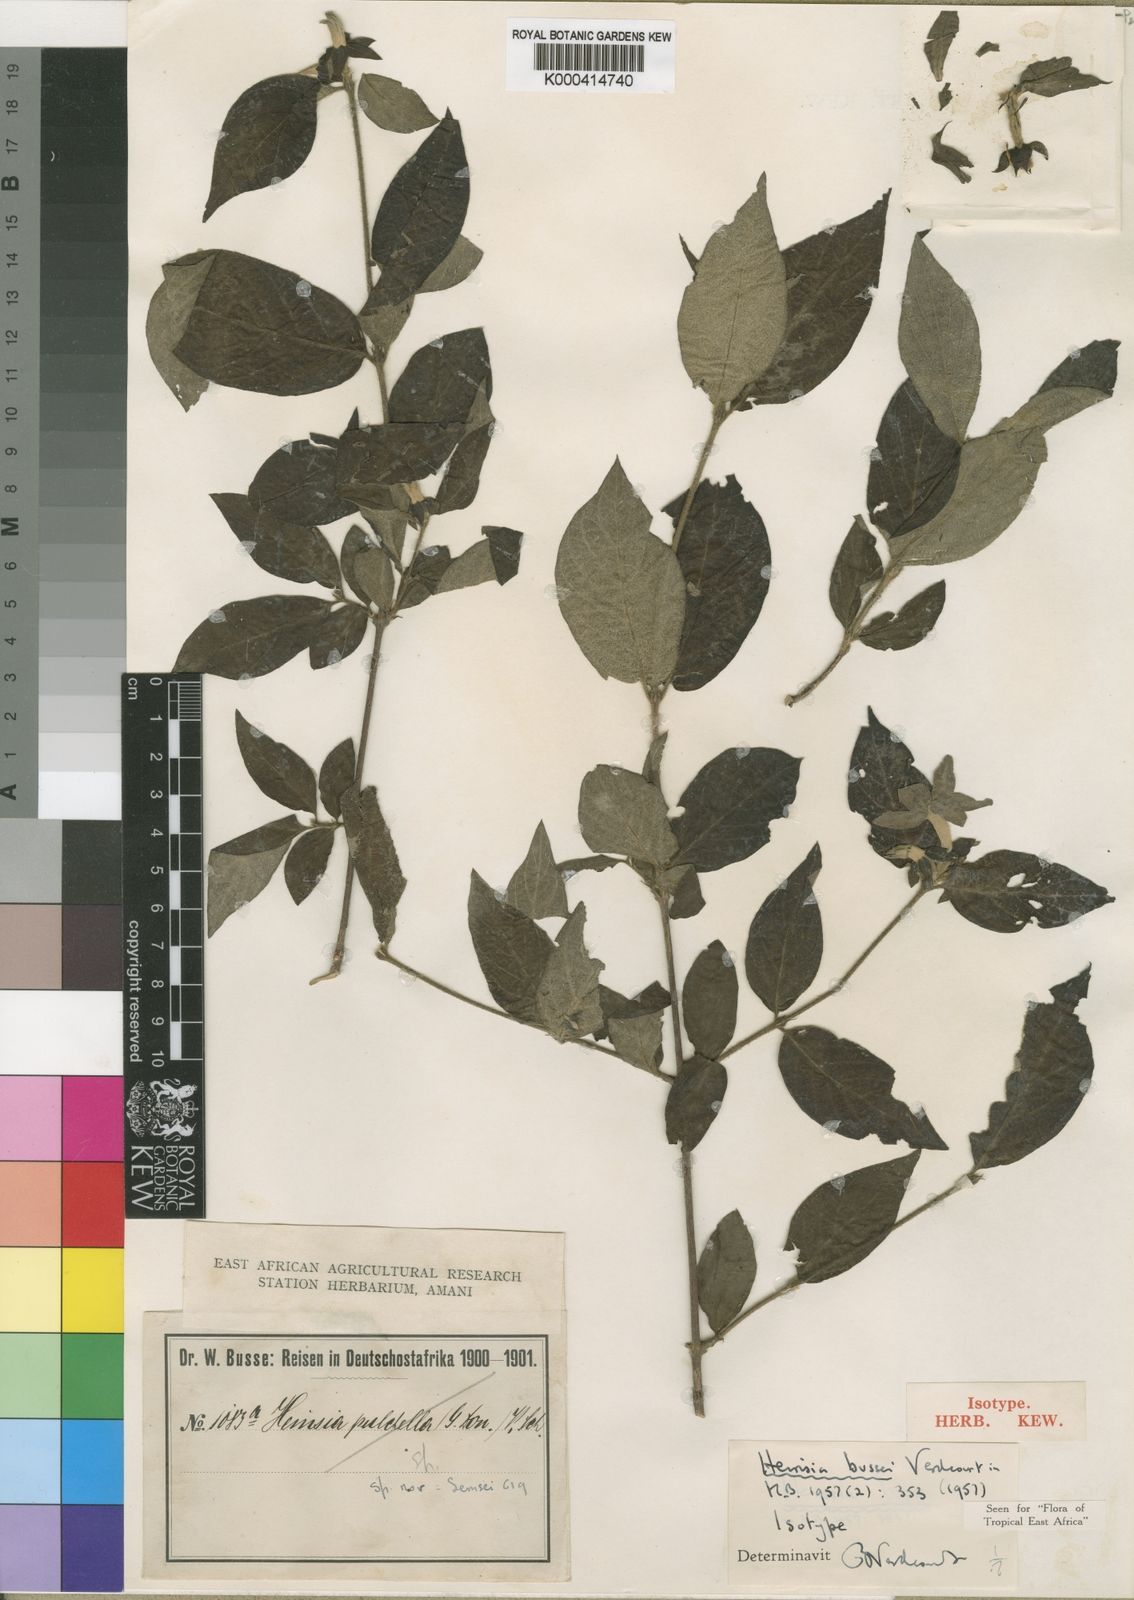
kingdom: Plantae
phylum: Tracheophyta
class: Magnoliopsida
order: Gentianales
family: Rubiaceae
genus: Heinsia
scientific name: Heinsia bussei
